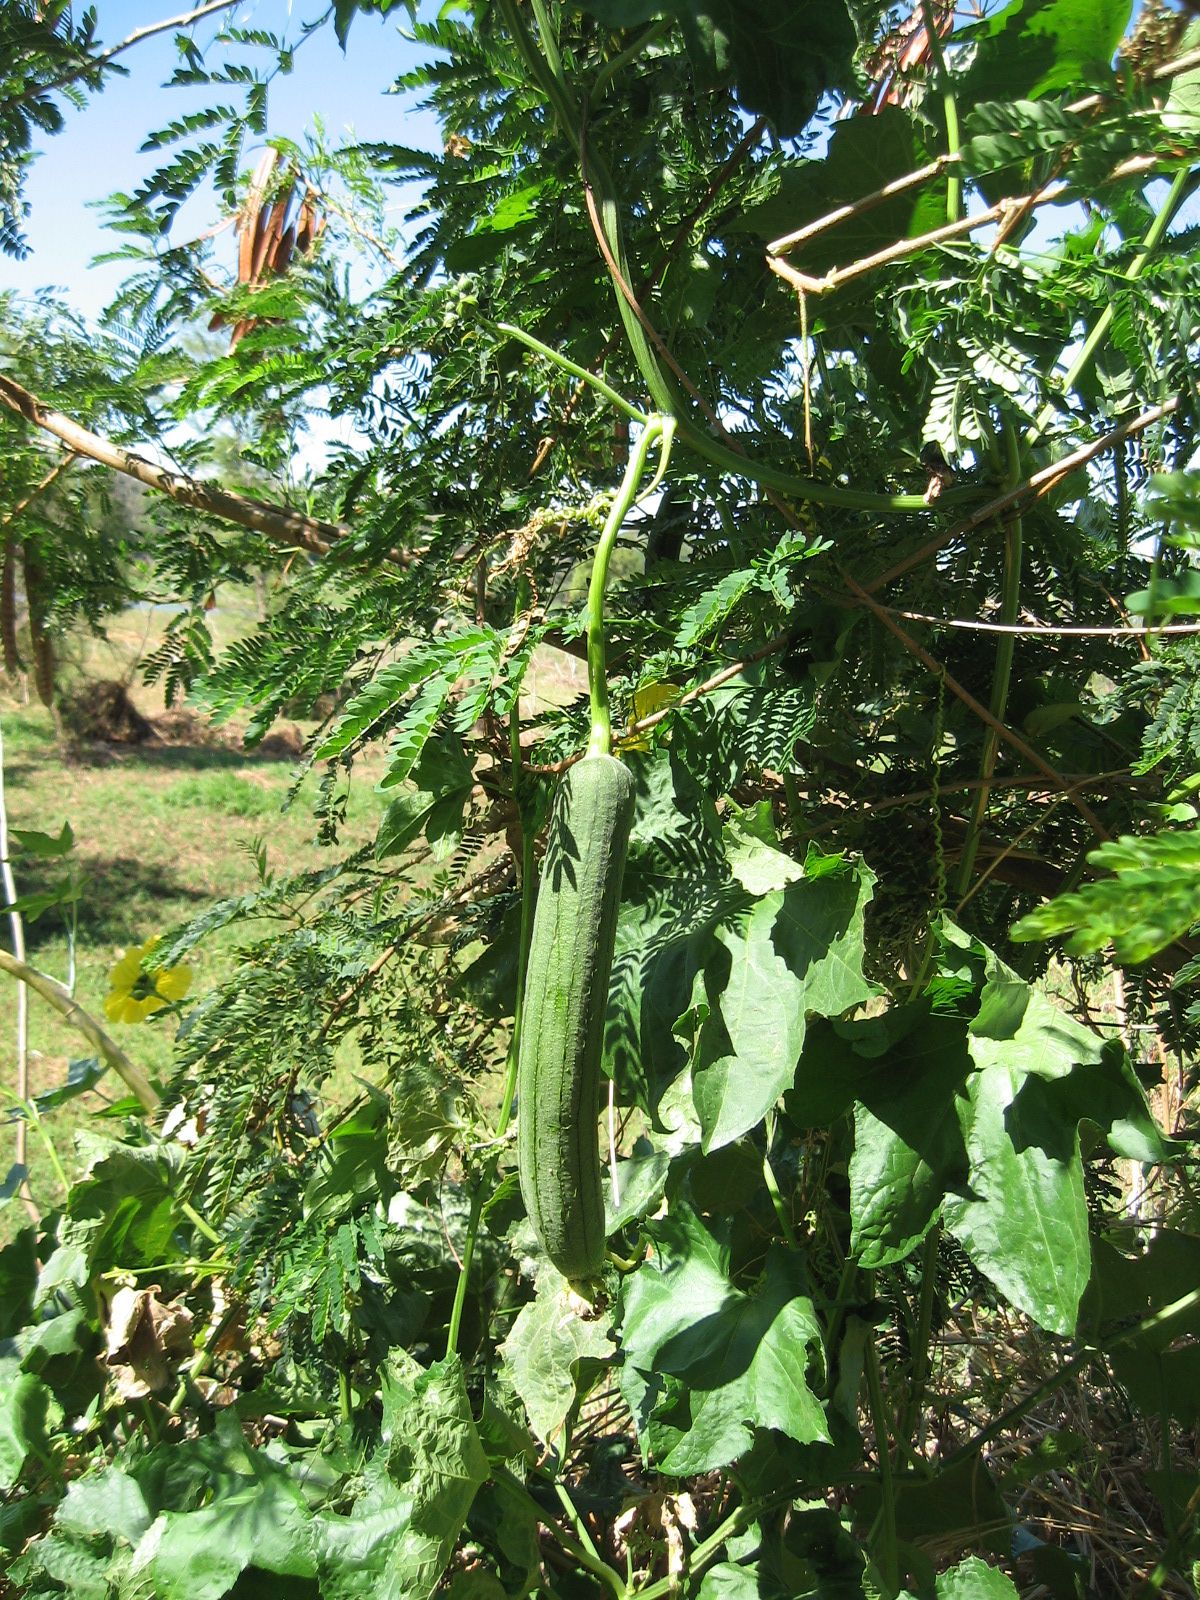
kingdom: Plantae
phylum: Tracheophyta
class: Magnoliopsida
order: Cucurbitales
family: Cucurbitaceae
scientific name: Cucurbitaceae
